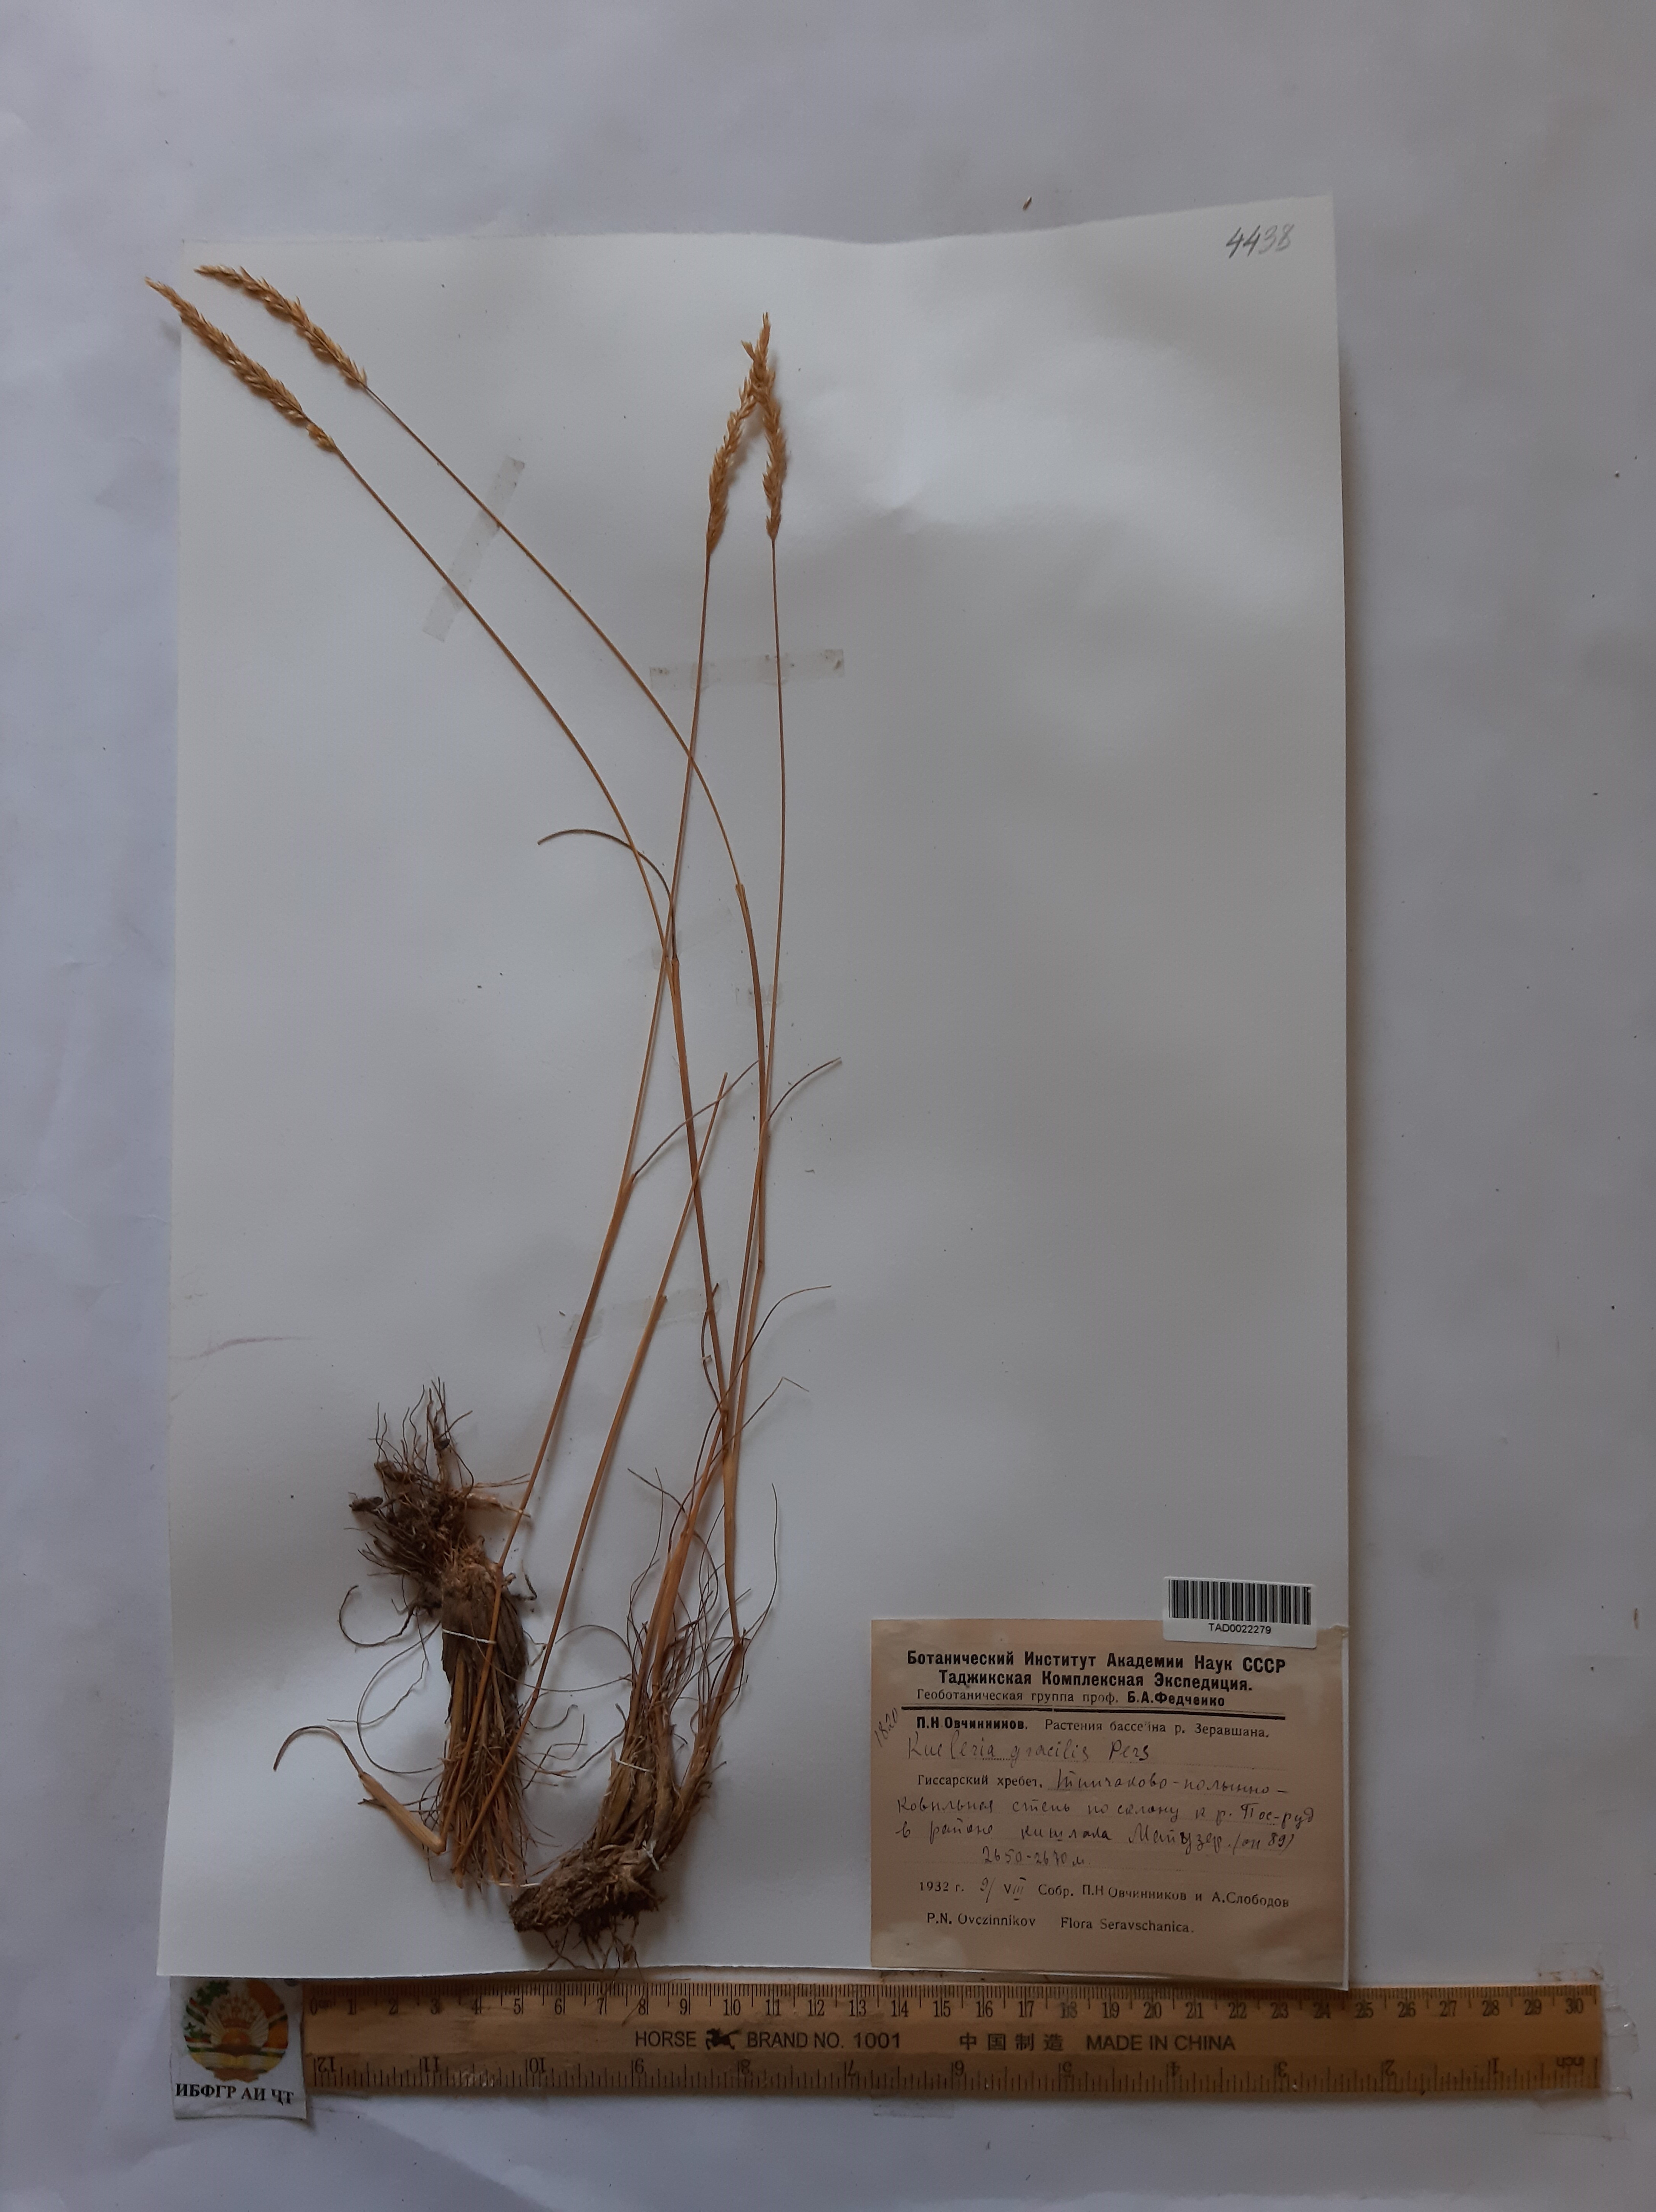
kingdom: Plantae
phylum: Tracheophyta
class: Liliopsida
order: Poales
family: Poaceae
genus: Koeleria
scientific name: Koeleria macrantha
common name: Crested hair-grass
